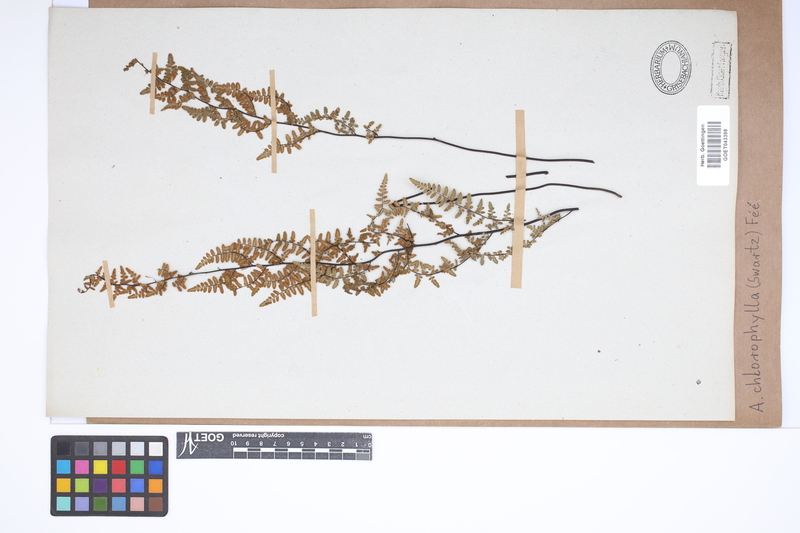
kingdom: Plantae
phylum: Tracheophyta
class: Polypodiopsida
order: Polypodiales
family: Pteridaceae
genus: Adiantopsis
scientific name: Adiantopsis chlorophylla
